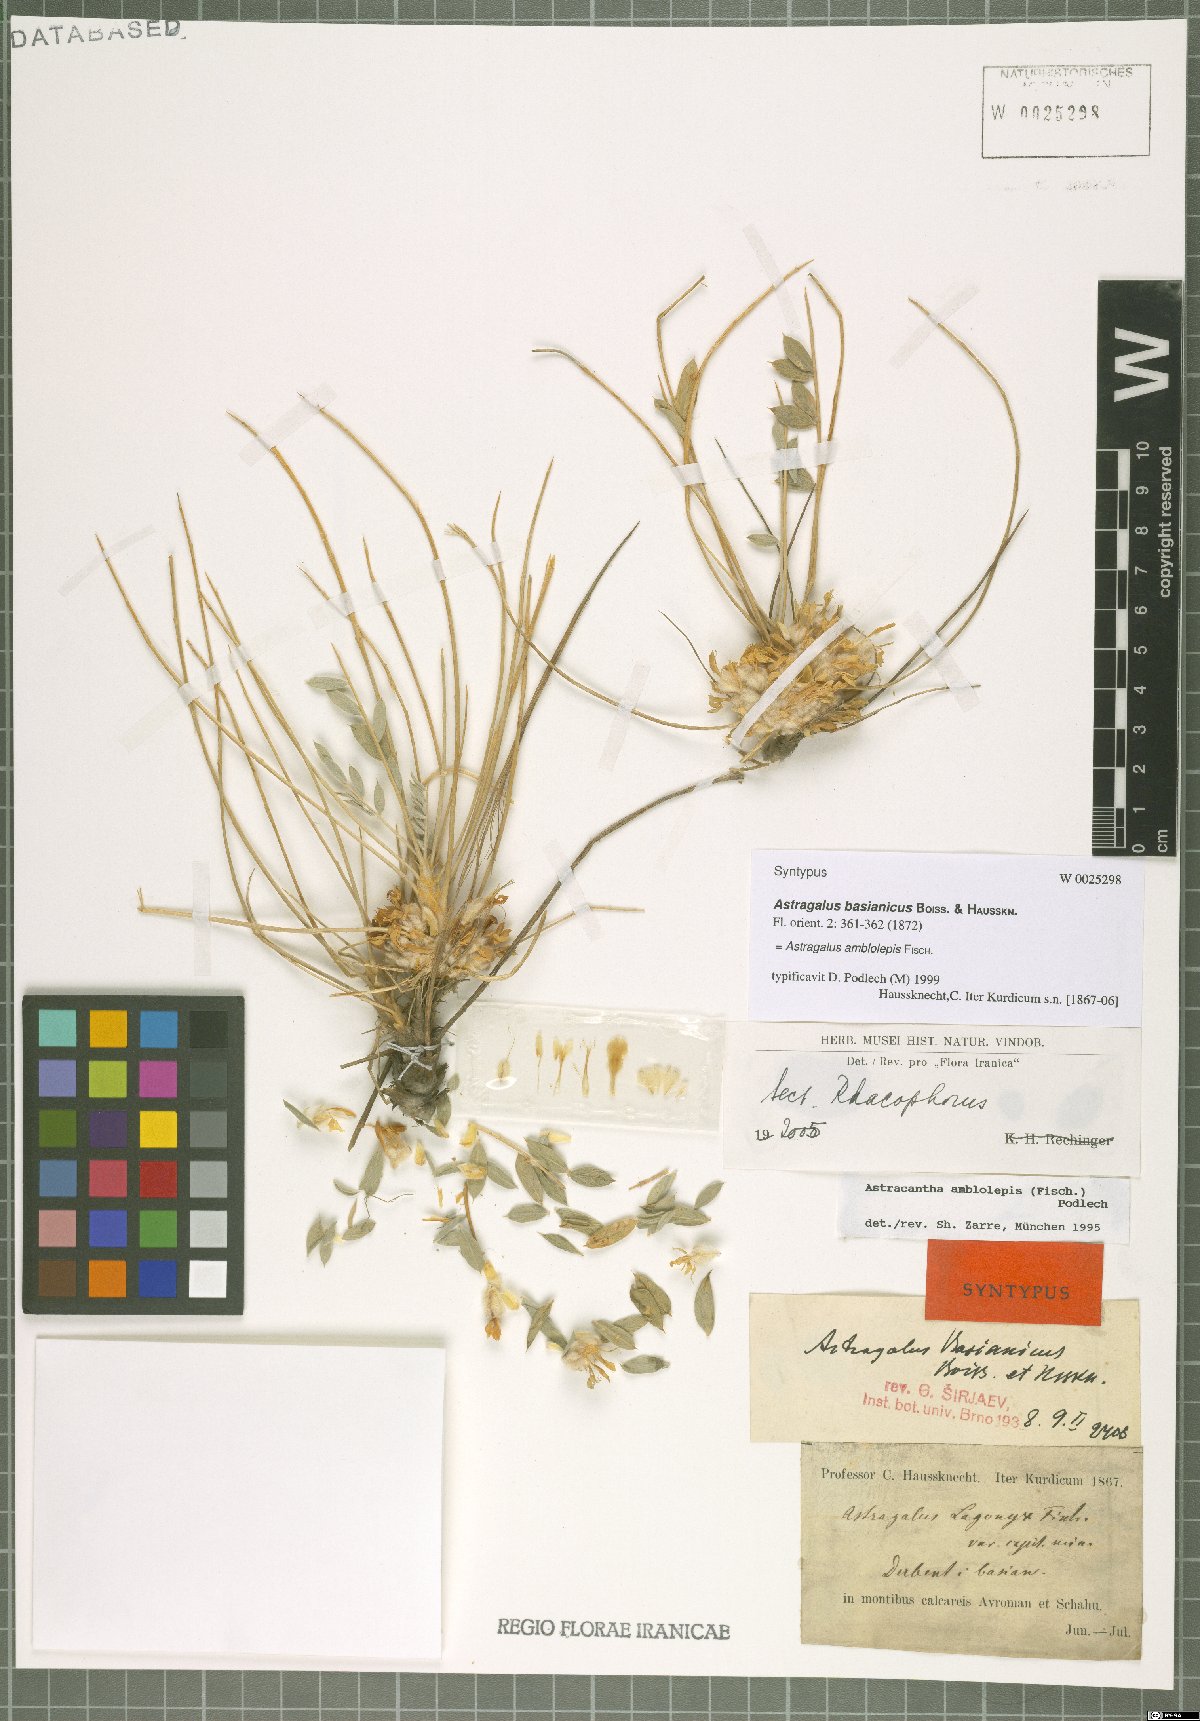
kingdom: Plantae
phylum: Tracheophyta
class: Magnoliopsida
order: Fabales
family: Fabaceae
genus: Astragalus
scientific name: Astragalus amblolepis
